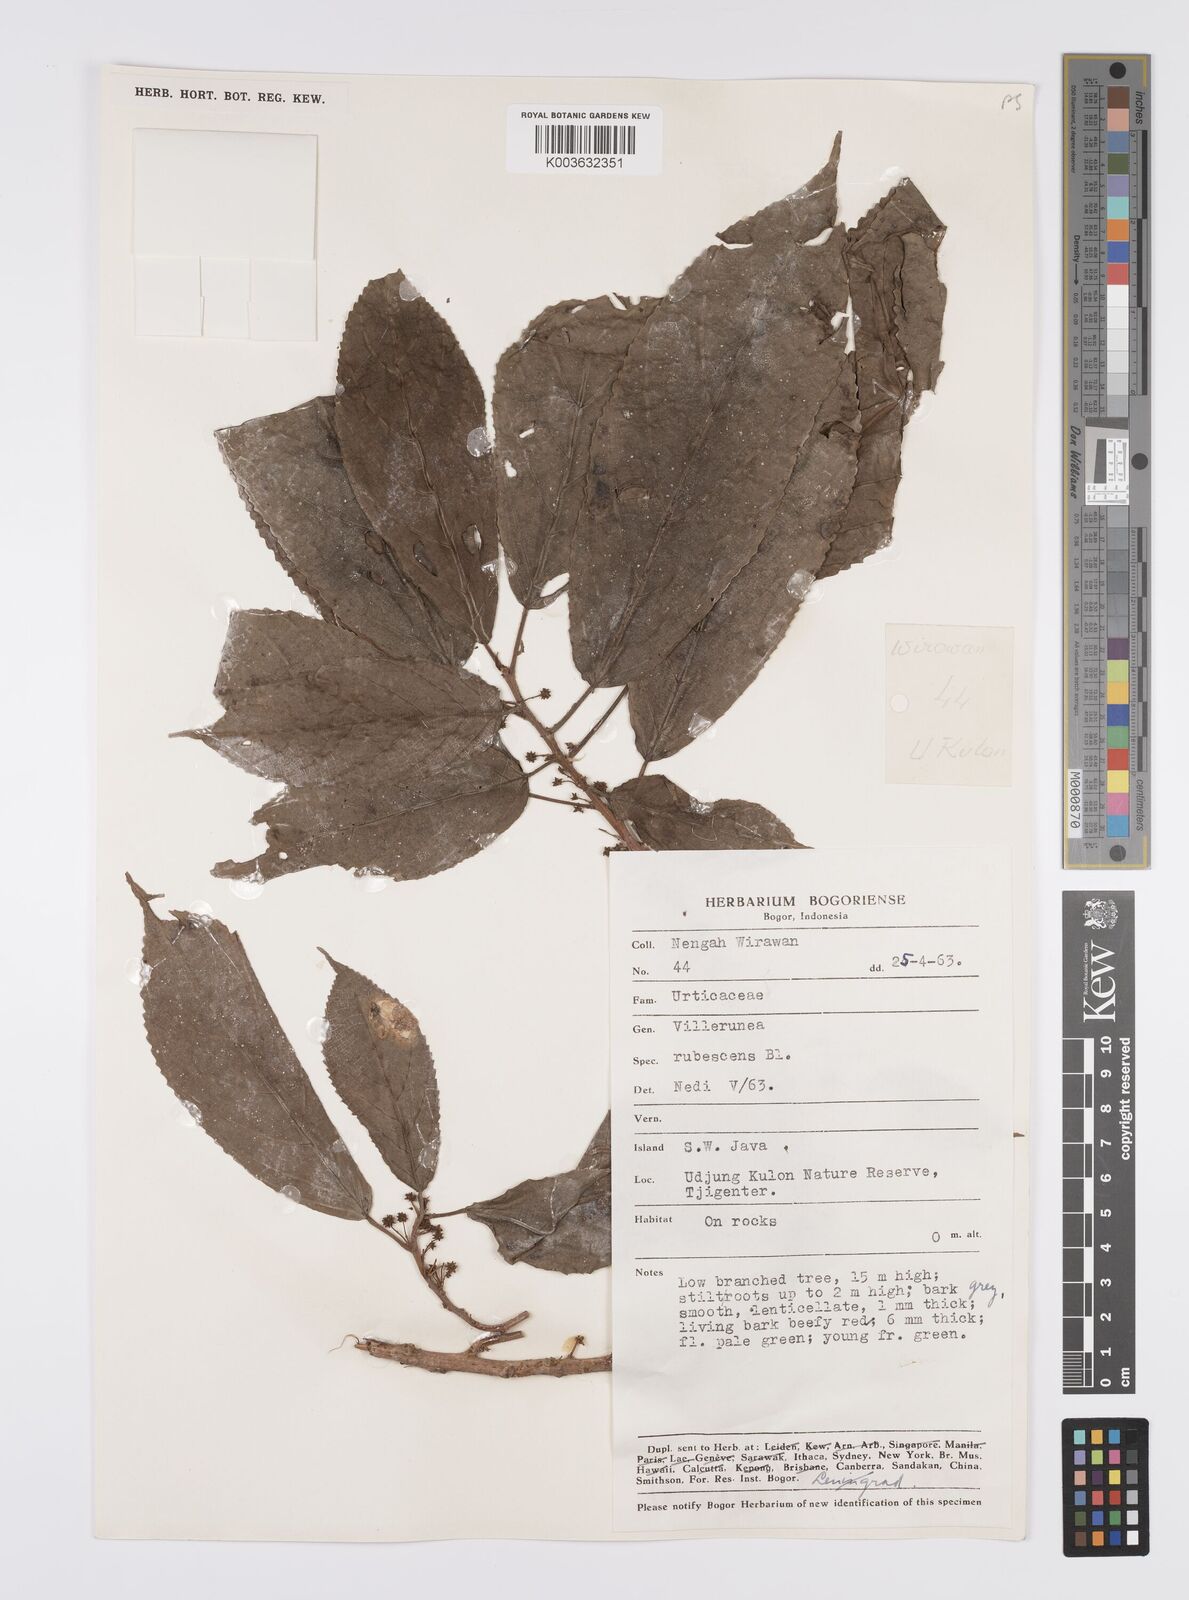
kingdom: Plantae
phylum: Tracheophyta
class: Magnoliopsida
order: Rosales
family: Urticaceae
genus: Oreocnide
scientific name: Oreocnide rubescens
